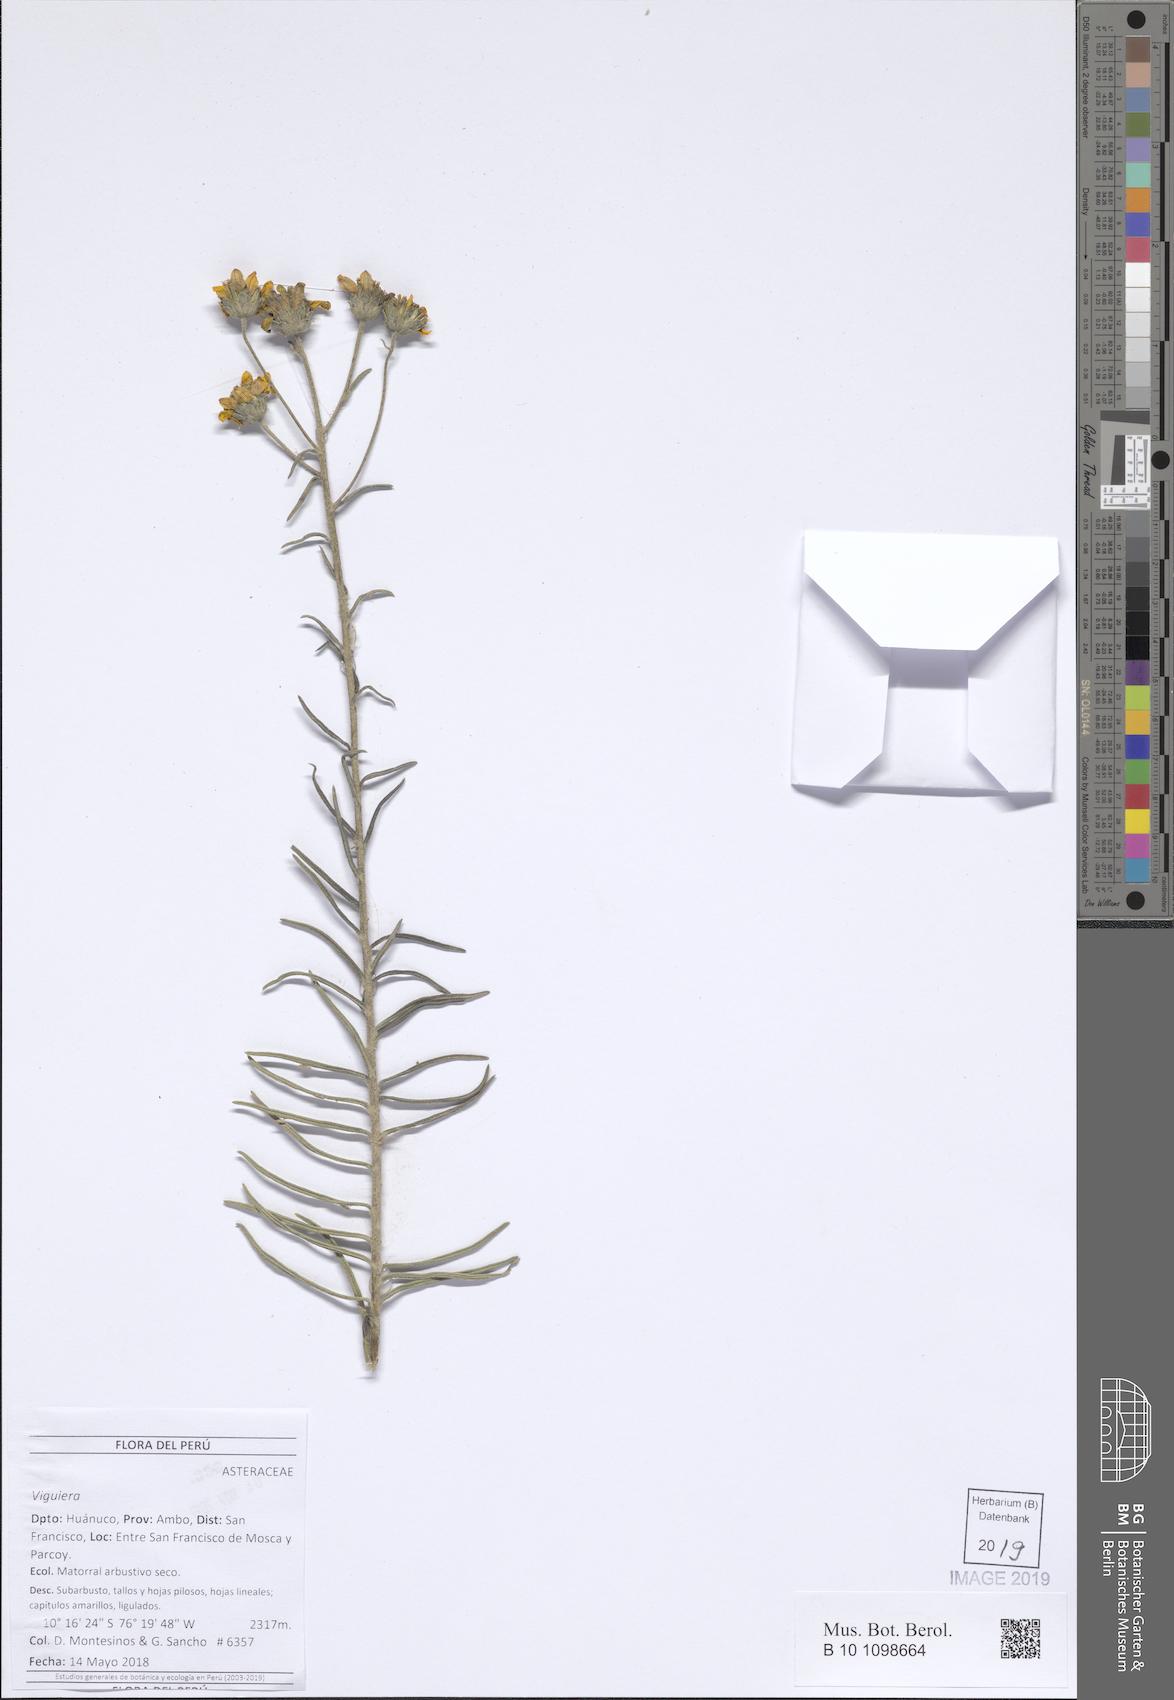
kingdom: Plantae
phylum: Tracheophyta
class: Magnoliopsida
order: Asterales
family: Asteraceae
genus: Viguiera
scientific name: Viguiera
